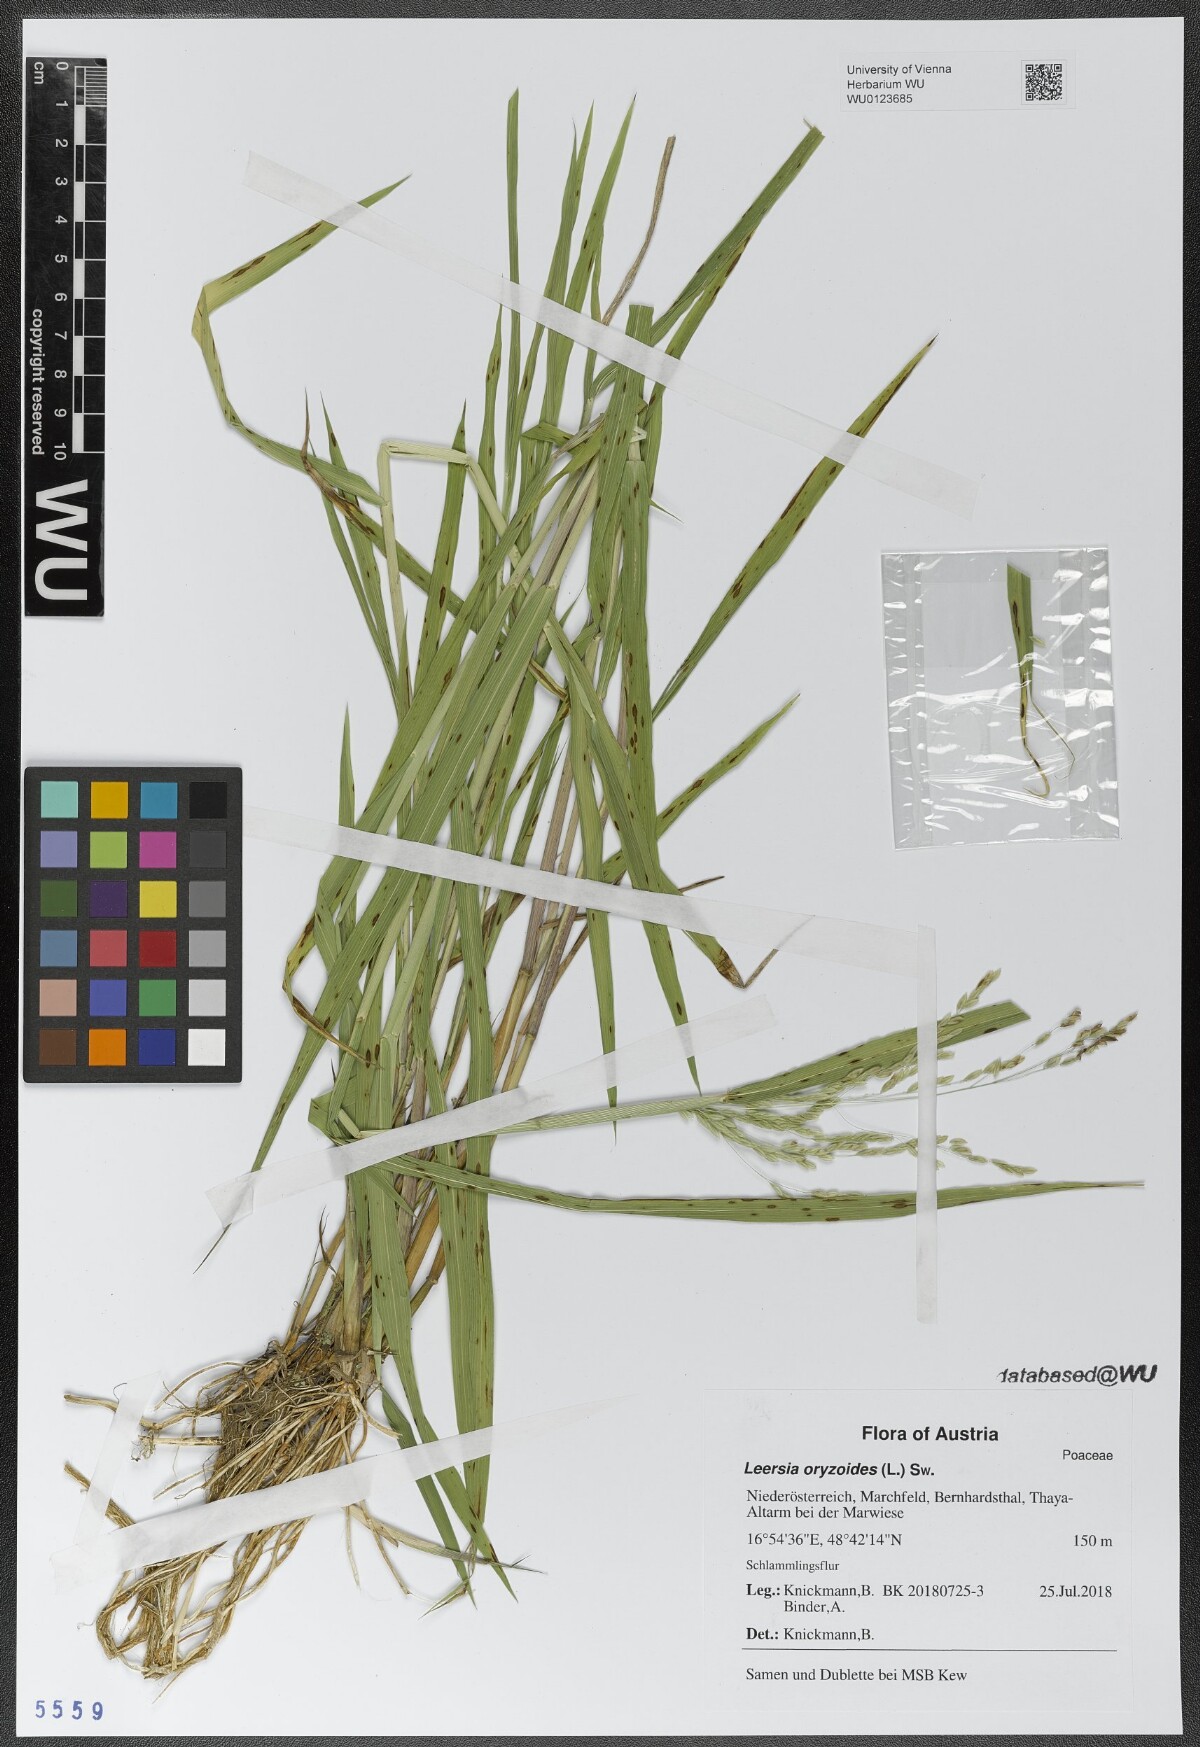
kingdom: Plantae
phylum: Tracheophyta
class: Liliopsida
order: Poales
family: Poaceae
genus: Leersia
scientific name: Leersia oryzoides
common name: Cut-grass
